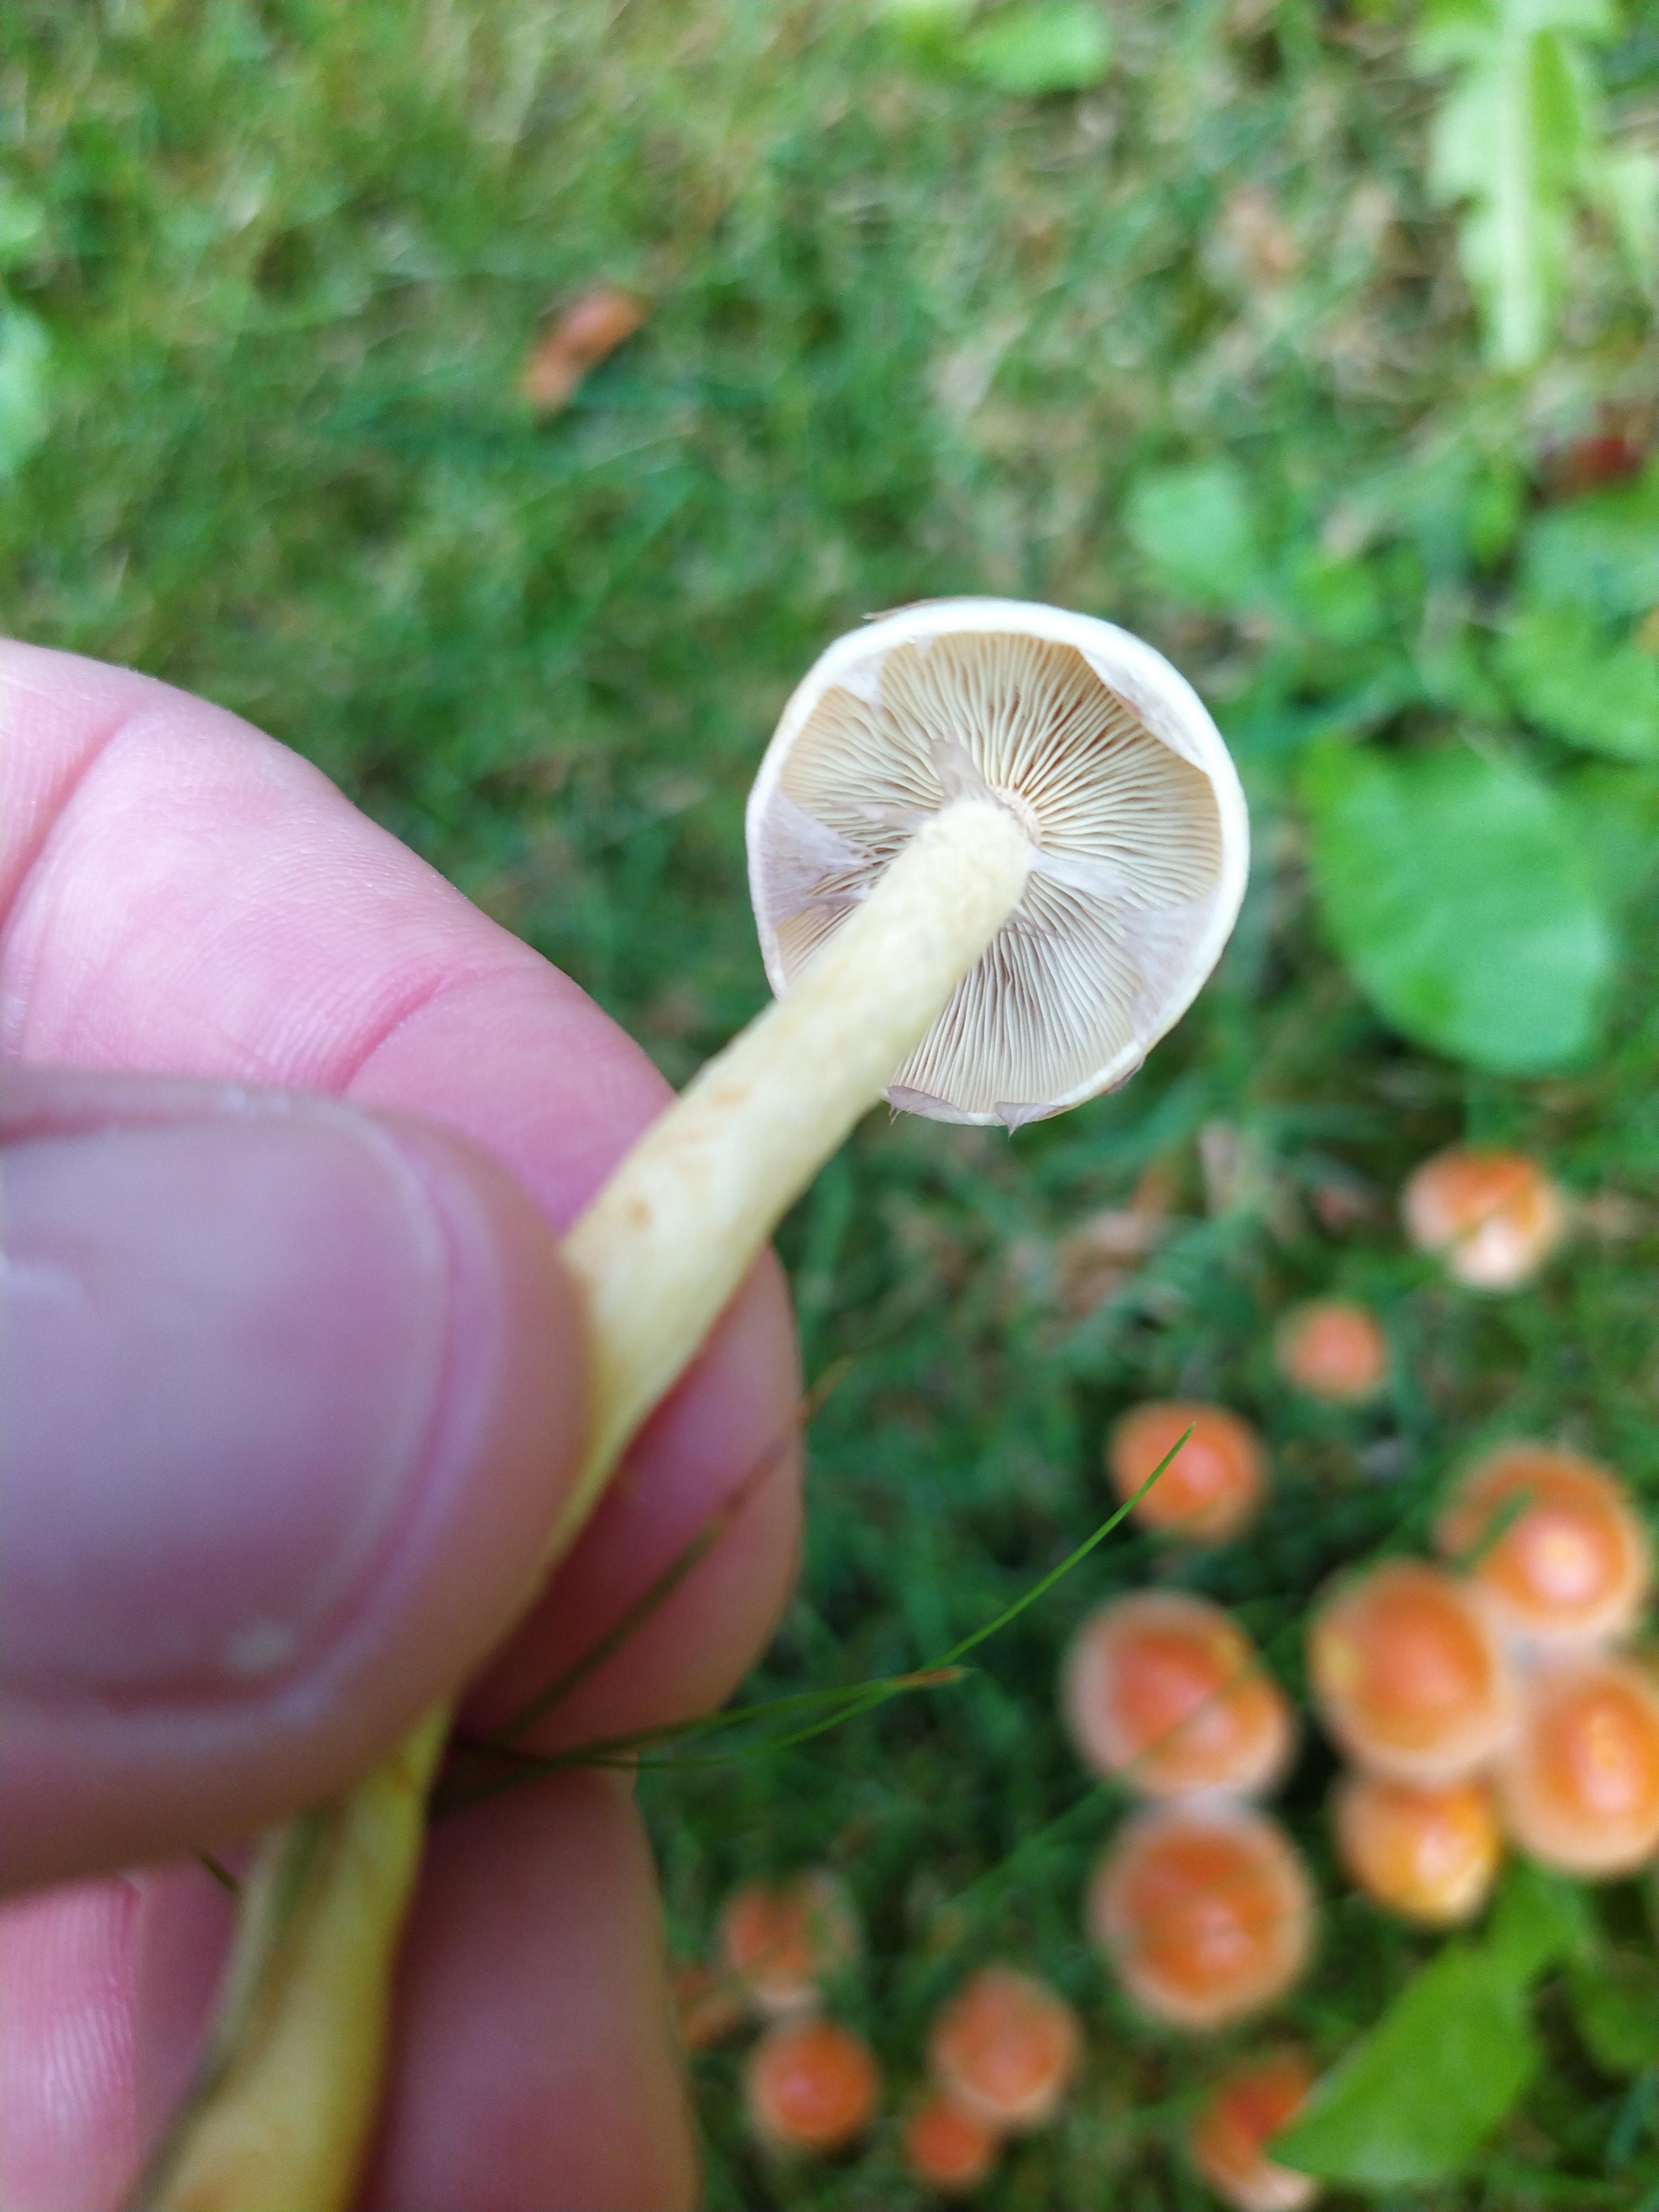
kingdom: Fungi
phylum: Basidiomycota
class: Agaricomycetes
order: Agaricales
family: Strophariaceae
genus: Hypholoma
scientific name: Hypholoma
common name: svovlhat
